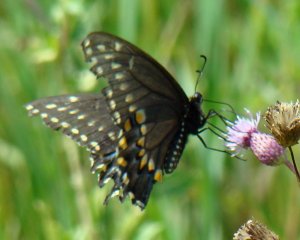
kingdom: Animalia
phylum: Arthropoda
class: Insecta
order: Lepidoptera
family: Papilionidae
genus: Papilio
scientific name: Papilio polyxenes
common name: Black Swallowtail
